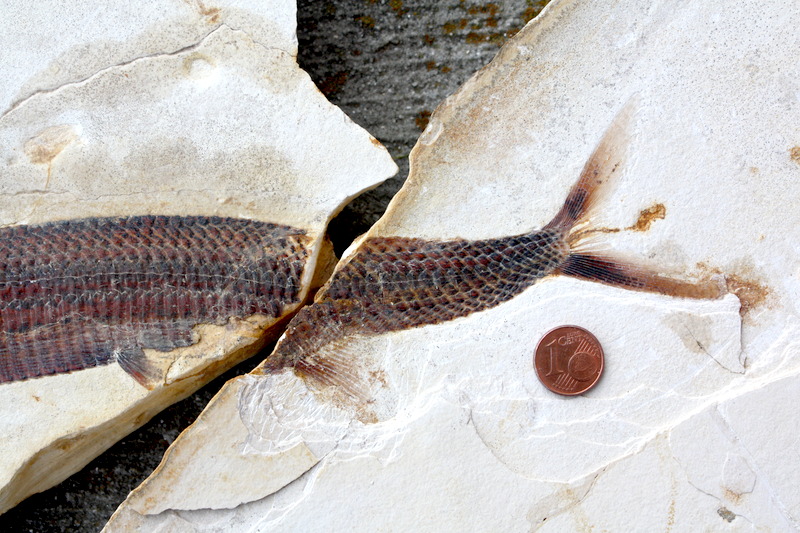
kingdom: Animalia
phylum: Chordata
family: Aspidorhynchidae
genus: Aspidorhynchus
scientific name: Aspidorhynchus sanzenbacheri
